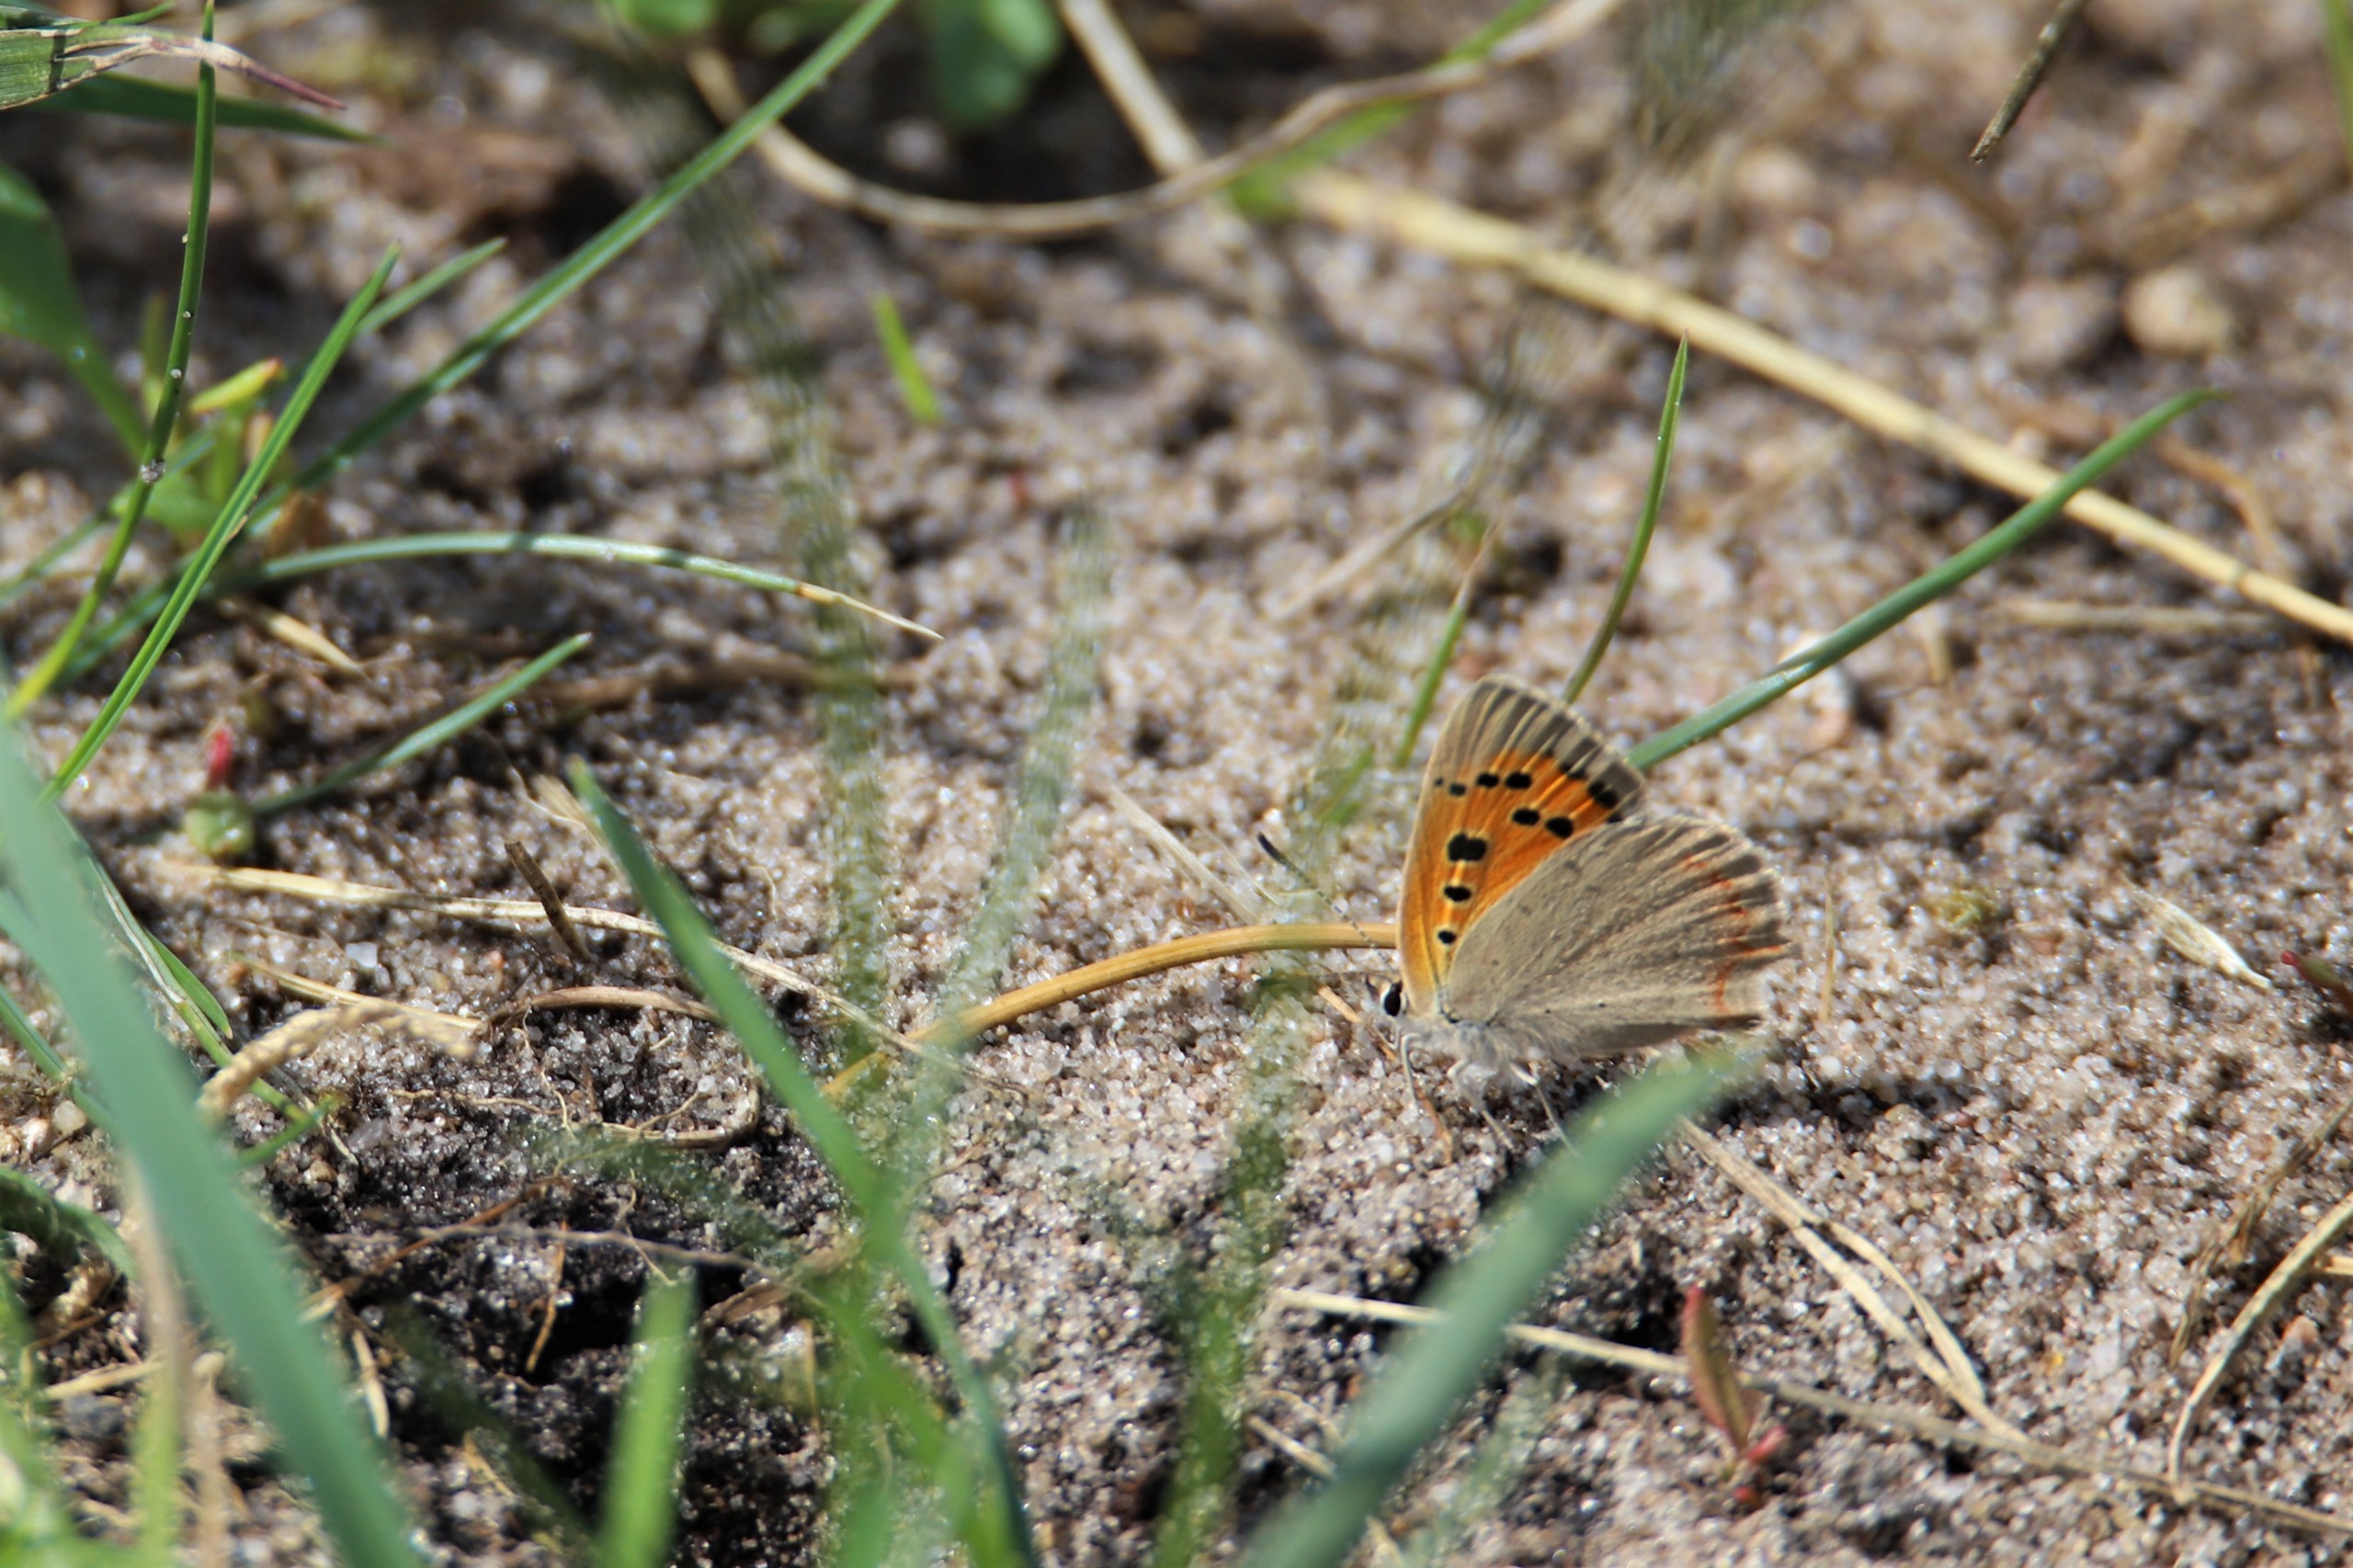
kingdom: Animalia
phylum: Arthropoda
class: Insecta
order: Lepidoptera
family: Lycaenidae
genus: Lycaena
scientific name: Lycaena phlaeas
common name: Lille ildfugl
